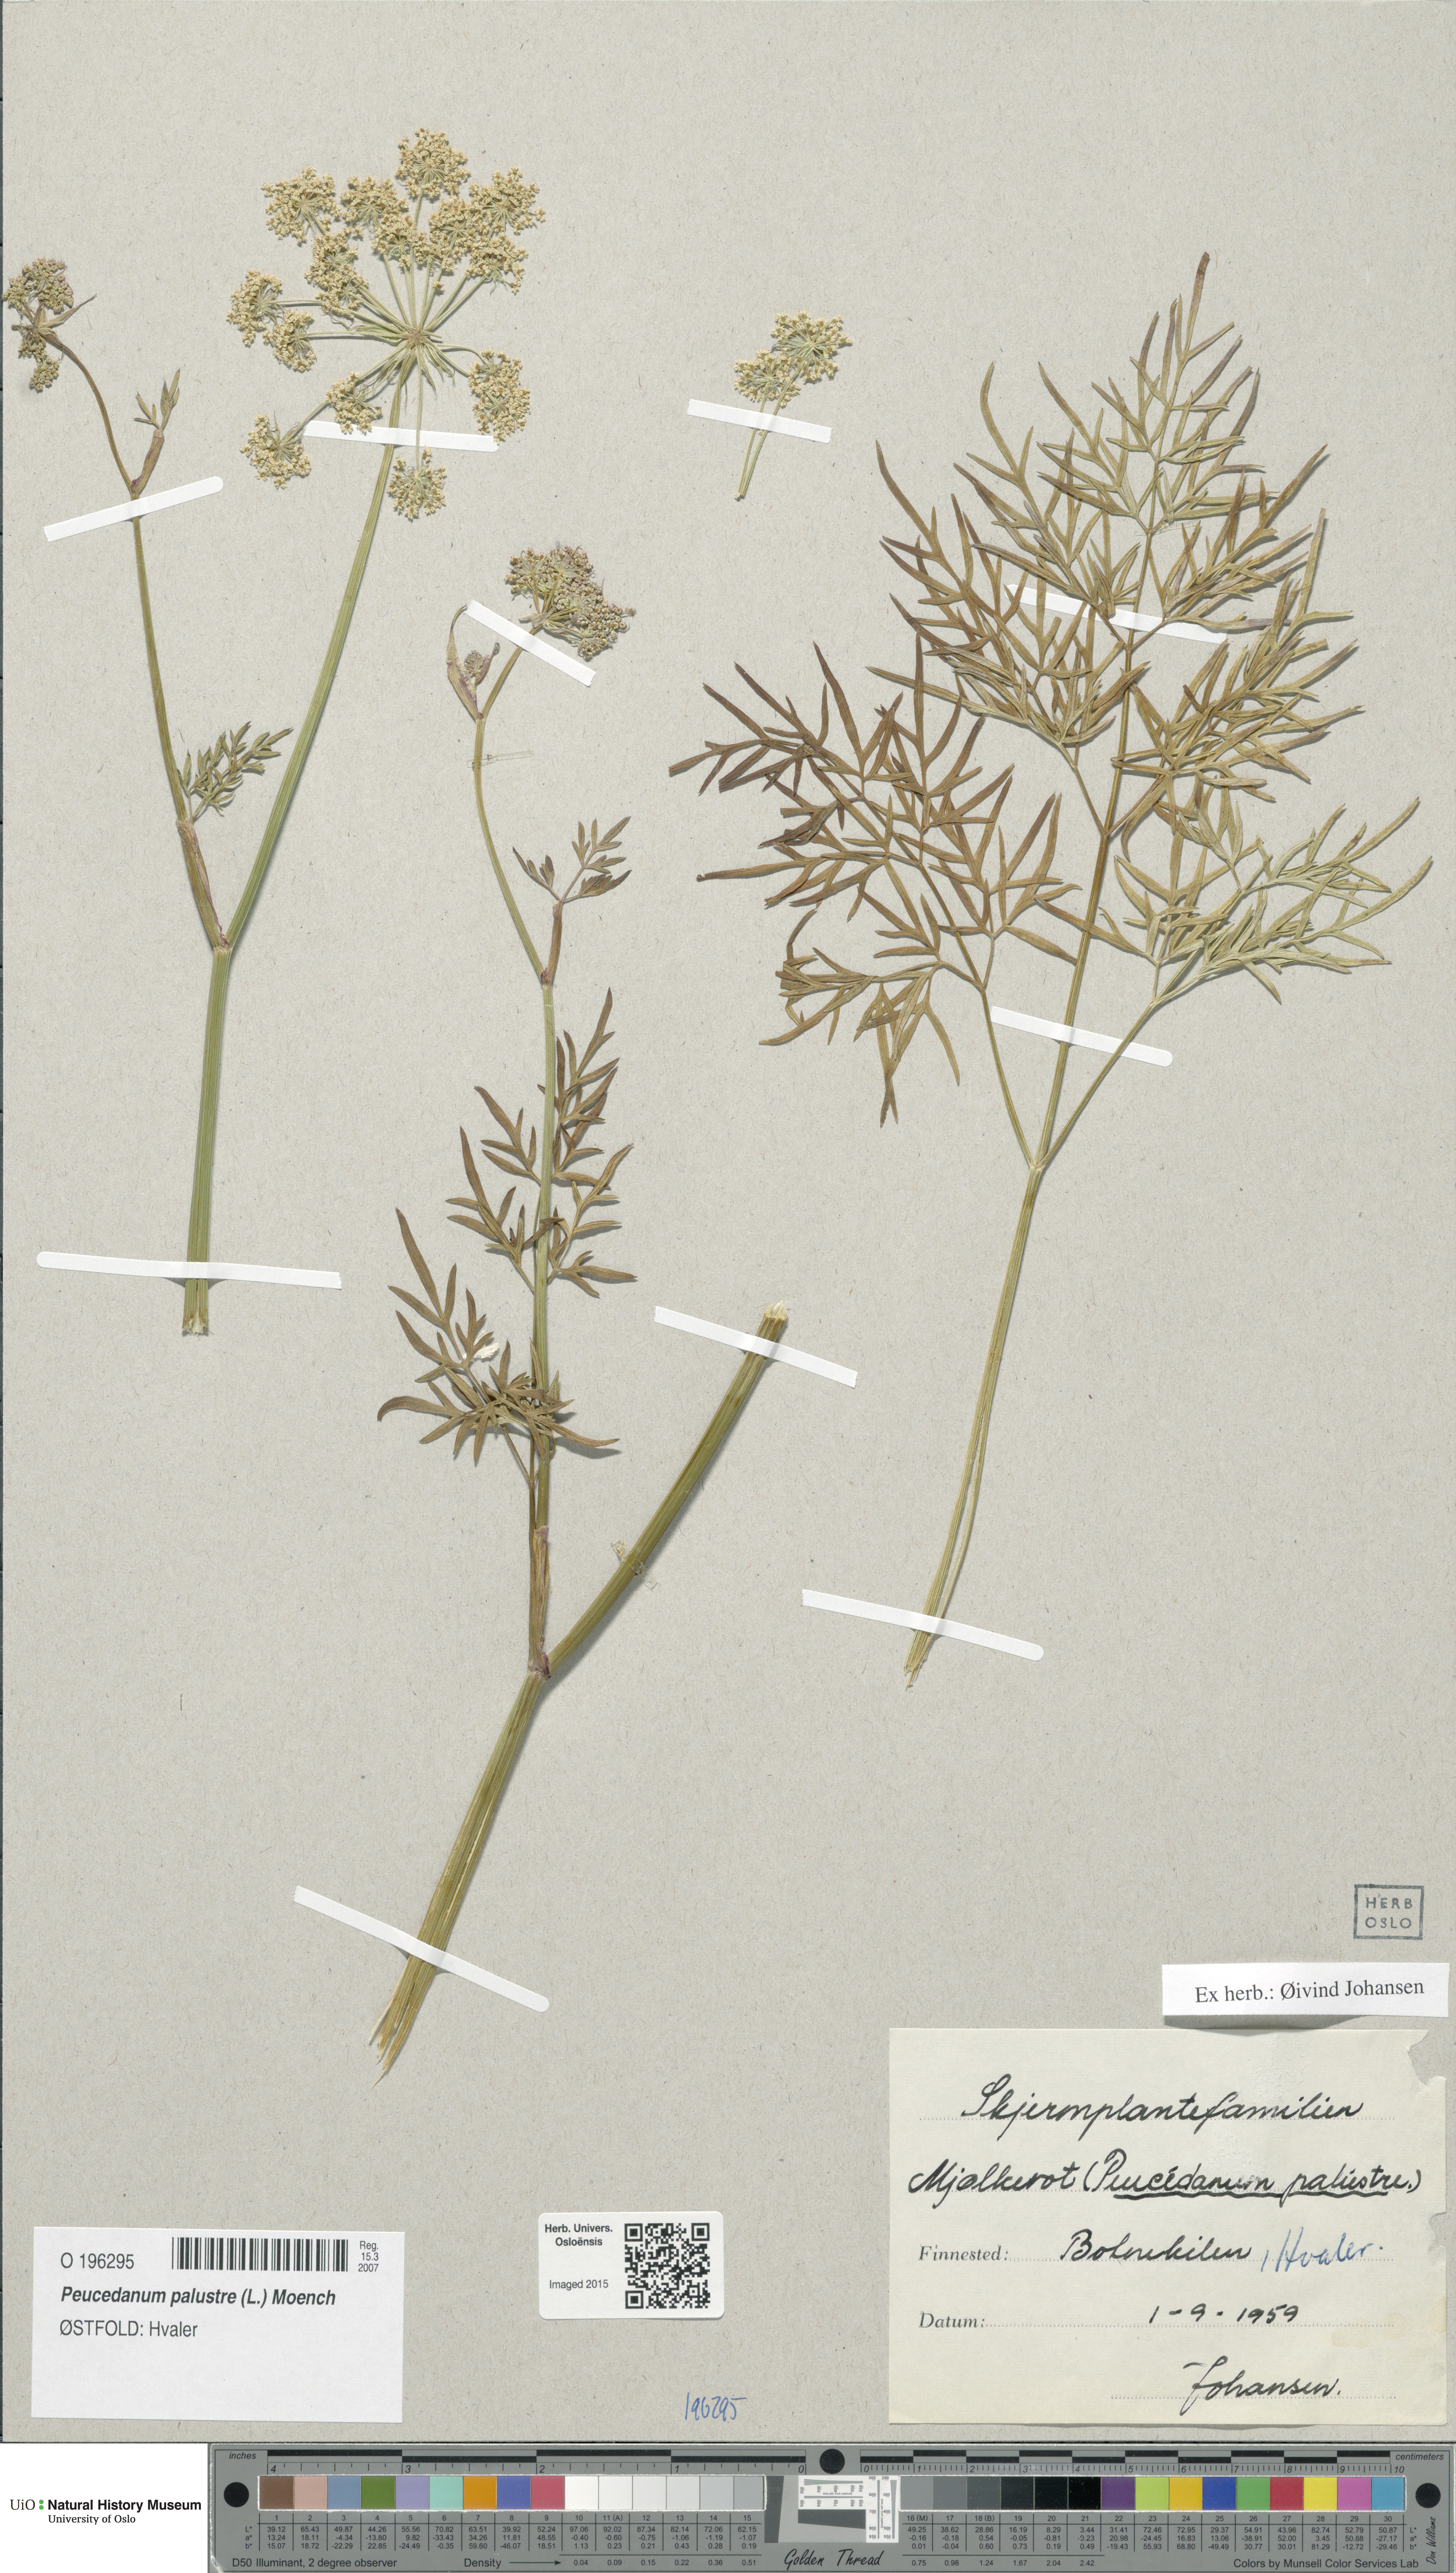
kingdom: Plantae
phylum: Tracheophyta
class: Magnoliopsida
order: Apiales
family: Apiaceae
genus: Thysselinum
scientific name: Thysselinum palustre
